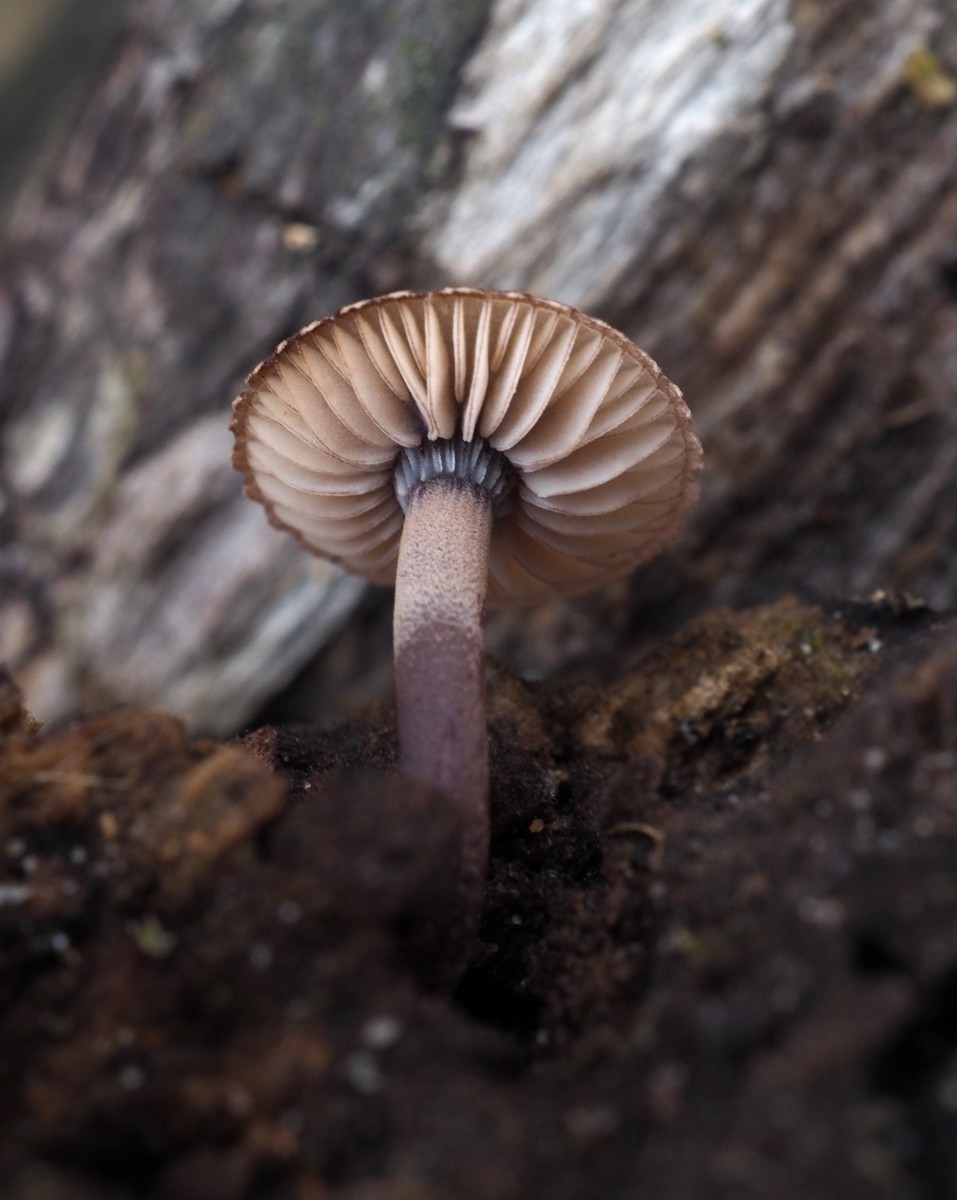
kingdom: Fungi
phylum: Basidiomycota
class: Agaricomycetes
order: Agaricales
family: Mycenaceae
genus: Mycena
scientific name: Mycena haematopus
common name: blødende huesvamp
